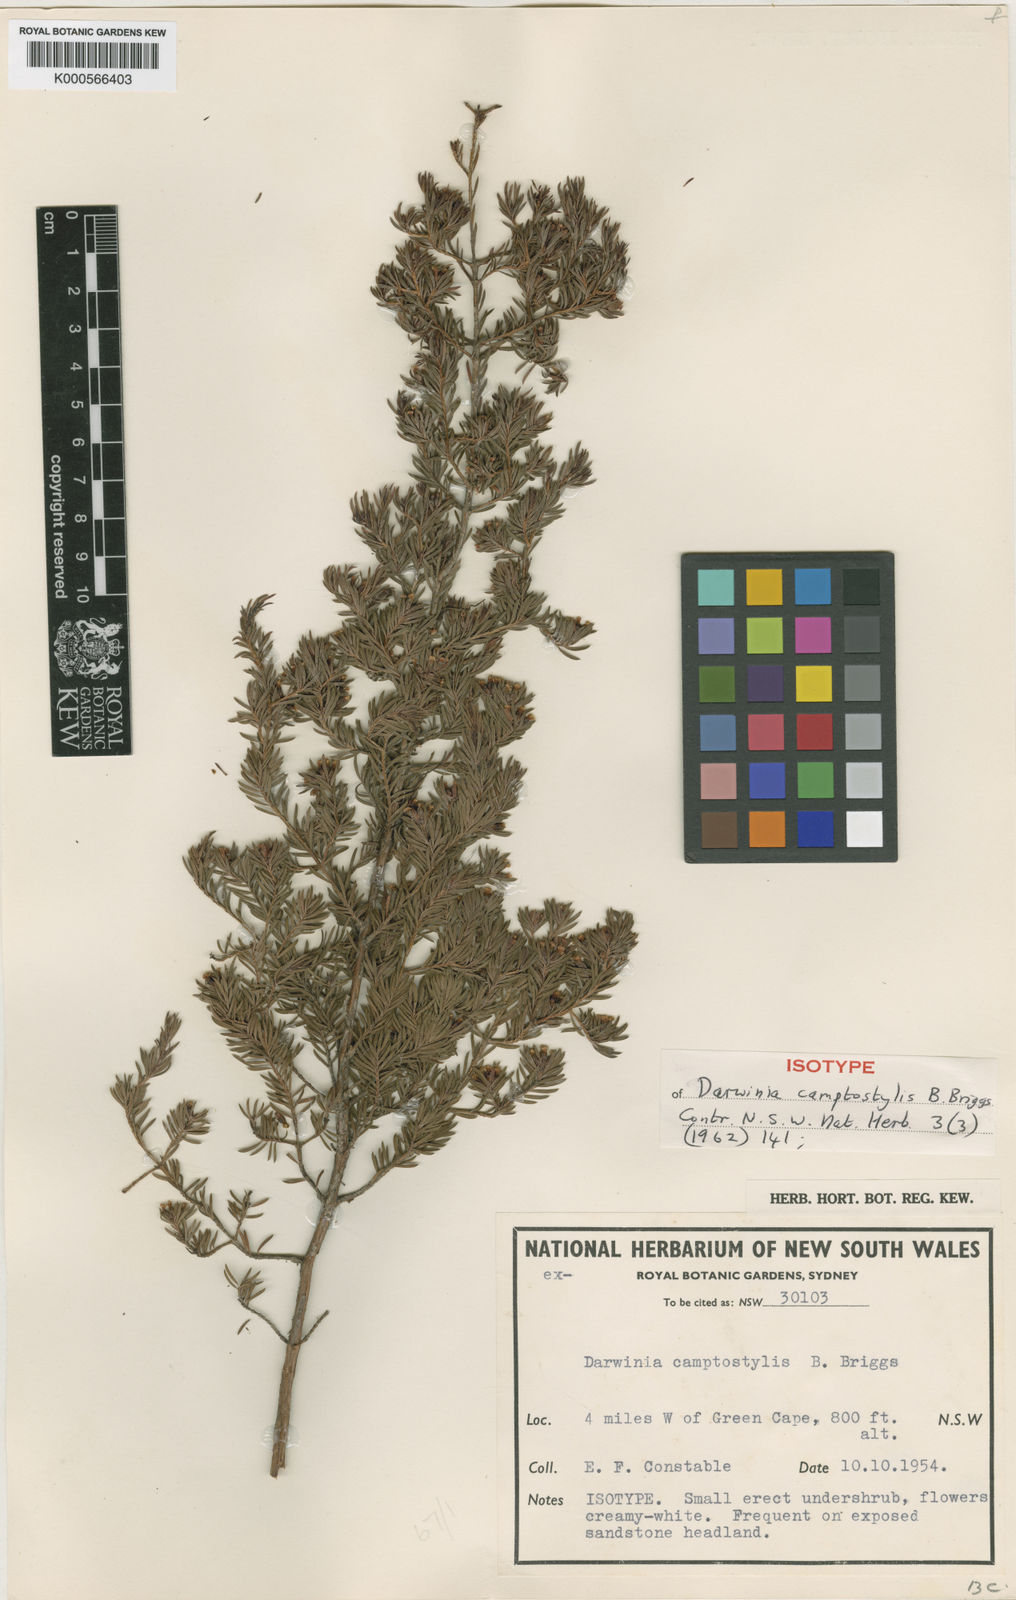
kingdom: Plantae
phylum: Tracheophyta
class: Magnoliopsida
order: Myrtales
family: Myrtaceae
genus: Darwinia
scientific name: Darwinia camptostylis
